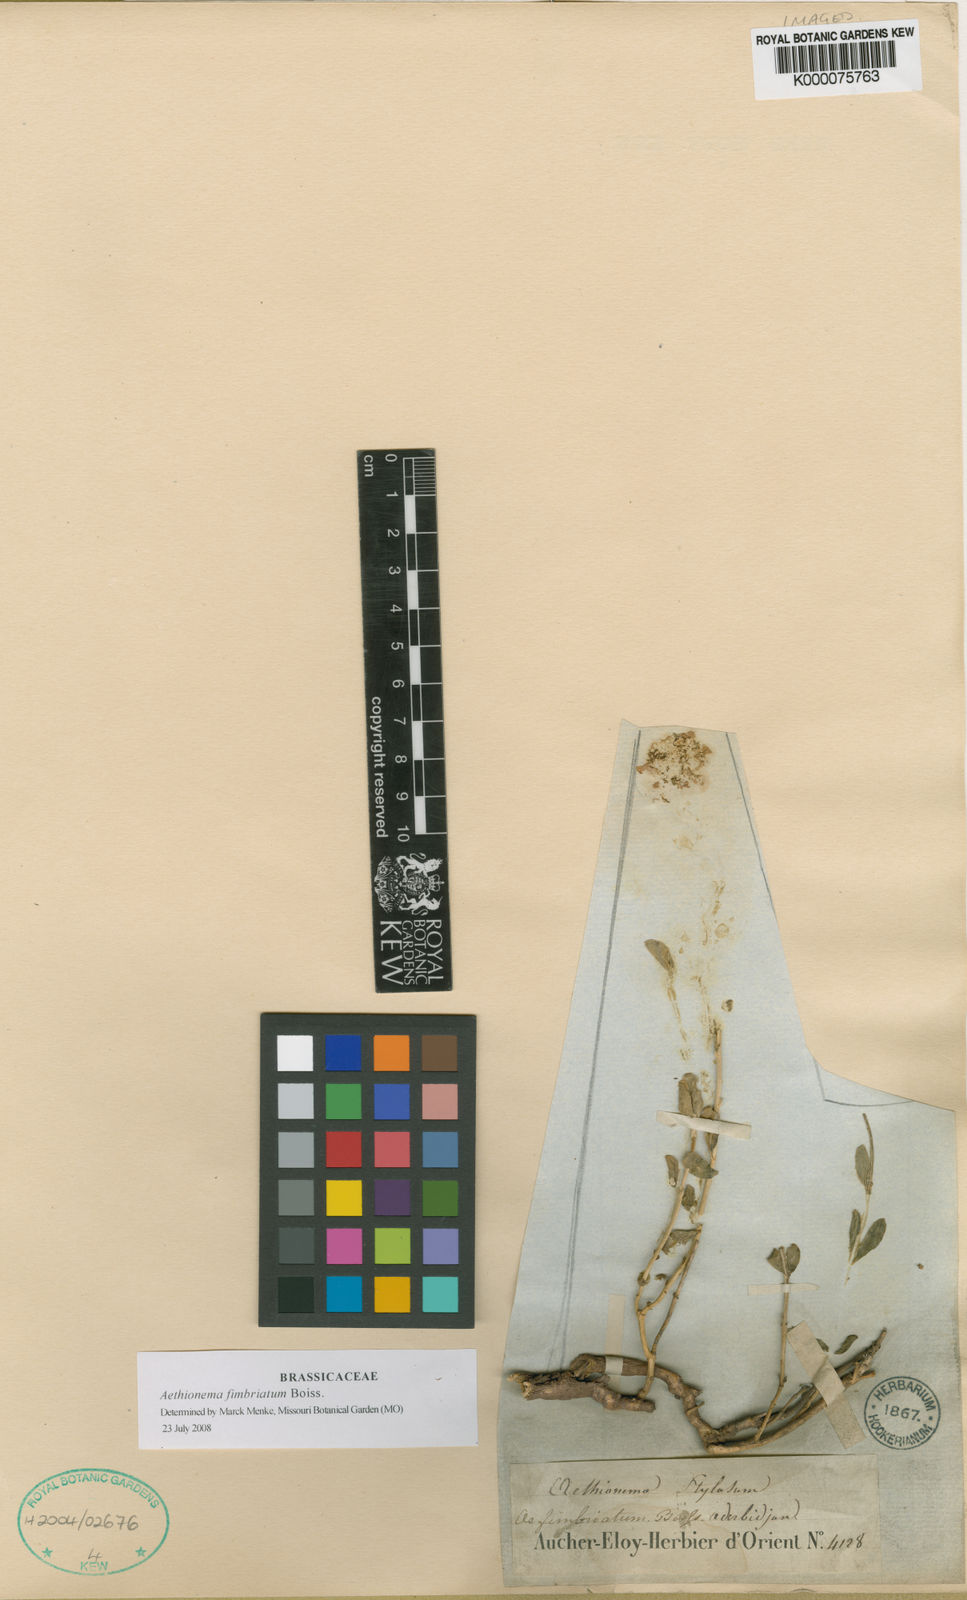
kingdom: Plantae
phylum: Tracheophyta
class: Magnoliopsida
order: Brassicales
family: Brassicaceae
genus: Aethionema
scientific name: Aethionema fimbriatum
